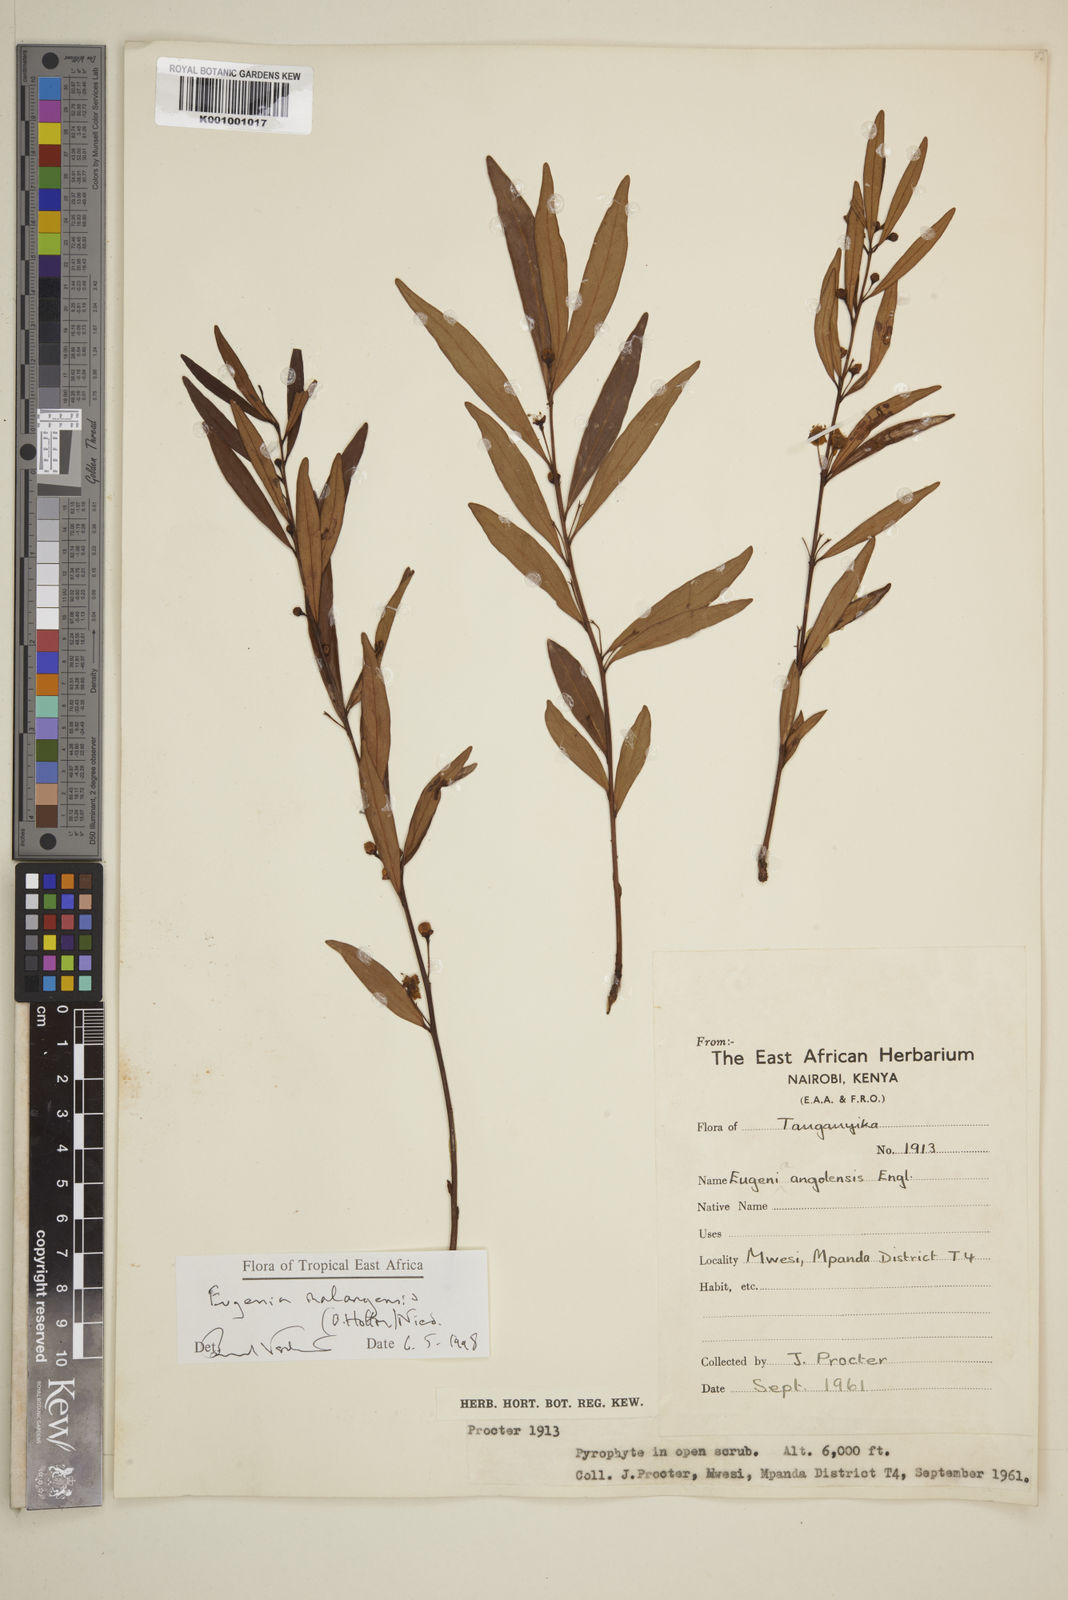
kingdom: Plantae
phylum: Tracheophyta
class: Magnoliopsida
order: Myrtales
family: Myrtaceae
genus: Eugenia
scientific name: Eugenia malangensis
